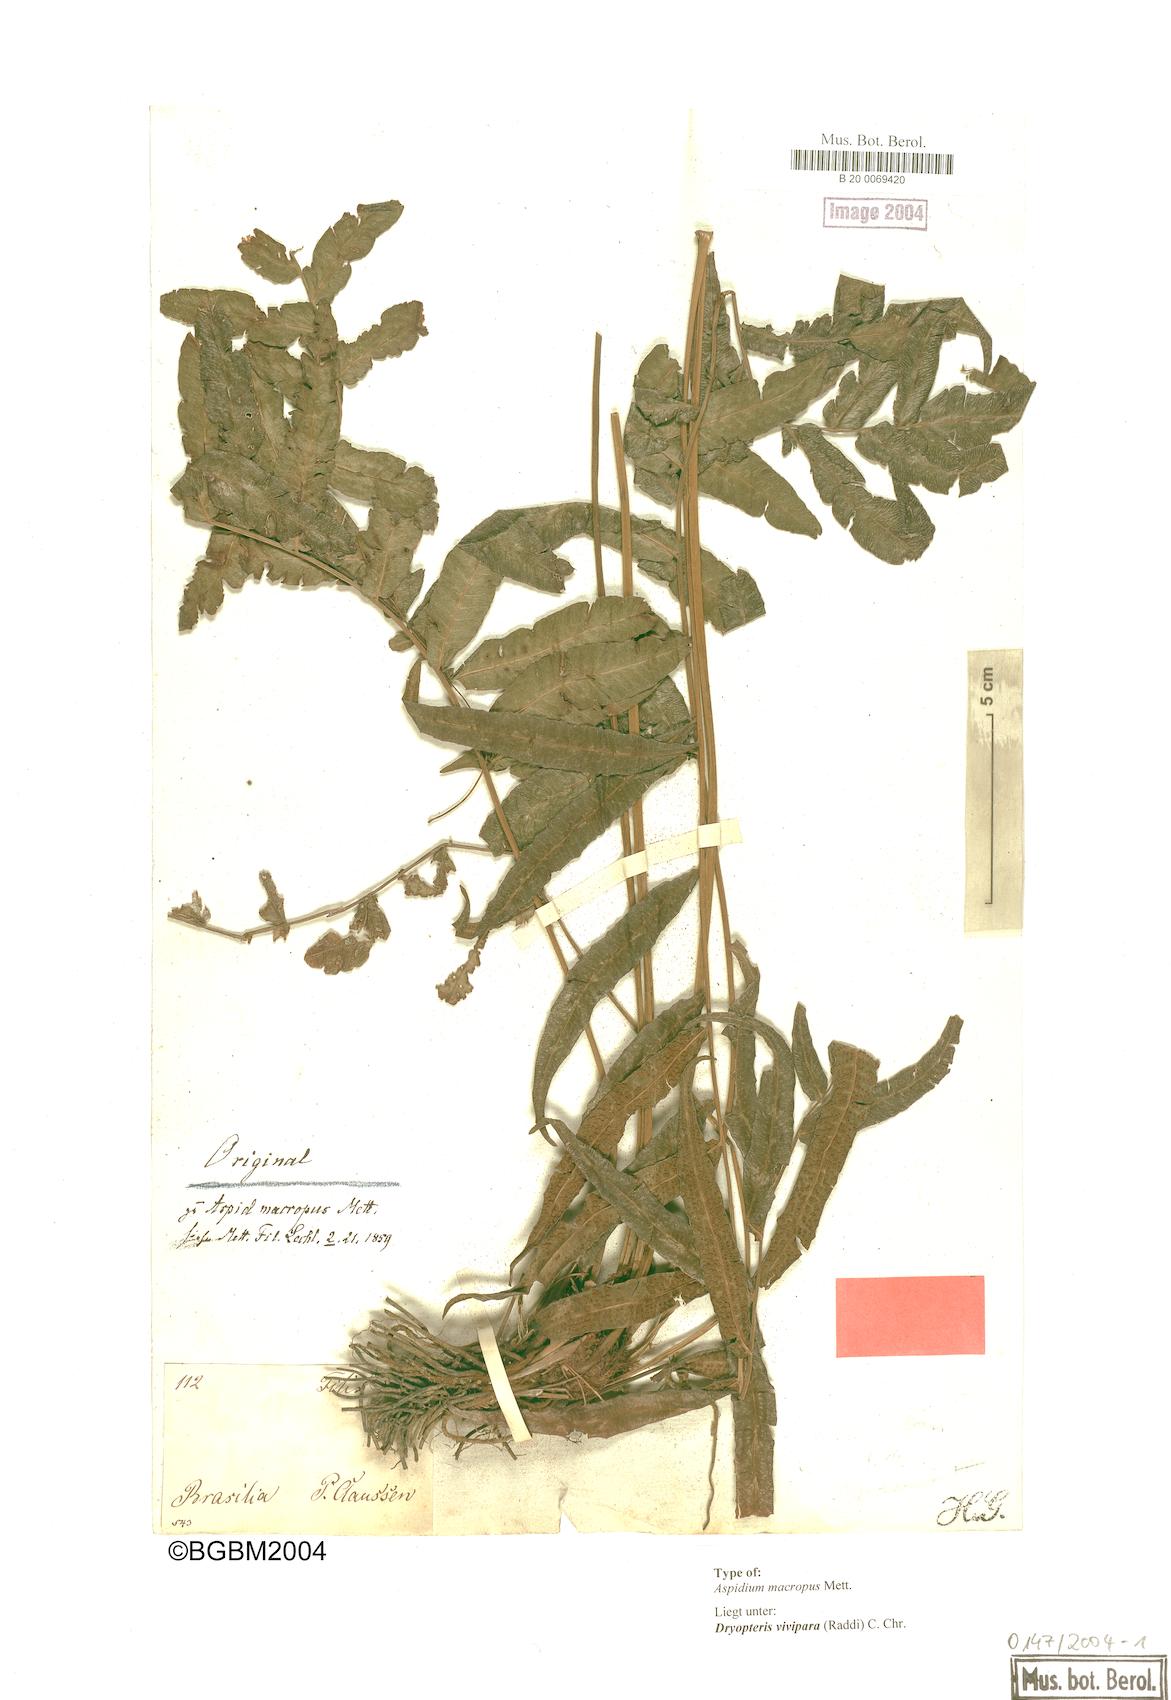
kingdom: Plantae
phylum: Tracheophyta
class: Polypodiopsida
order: Polypodiales
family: Thelypteridaceae
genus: Goniopteris
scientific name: Goniopteris vivipara
